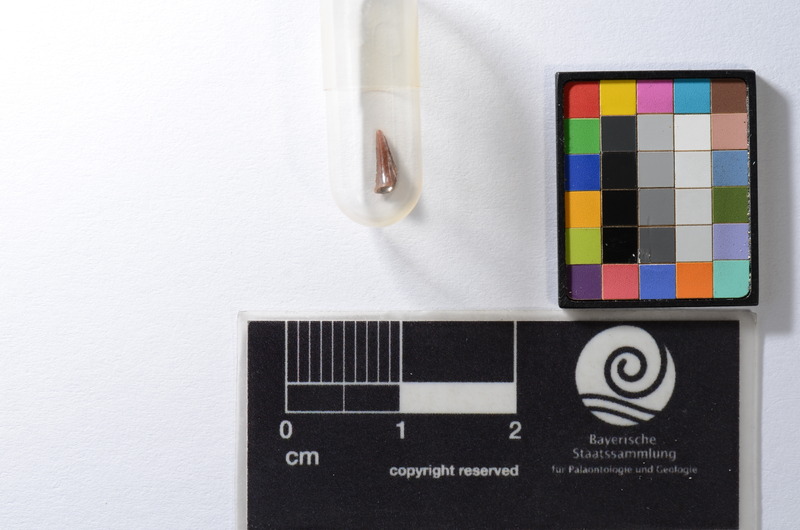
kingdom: Animalia
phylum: Chordata
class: Elasmobranchii
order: Rajiformes
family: Sclerorhynchidae
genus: Schizorhiza
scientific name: Schizorhiza stromeri
